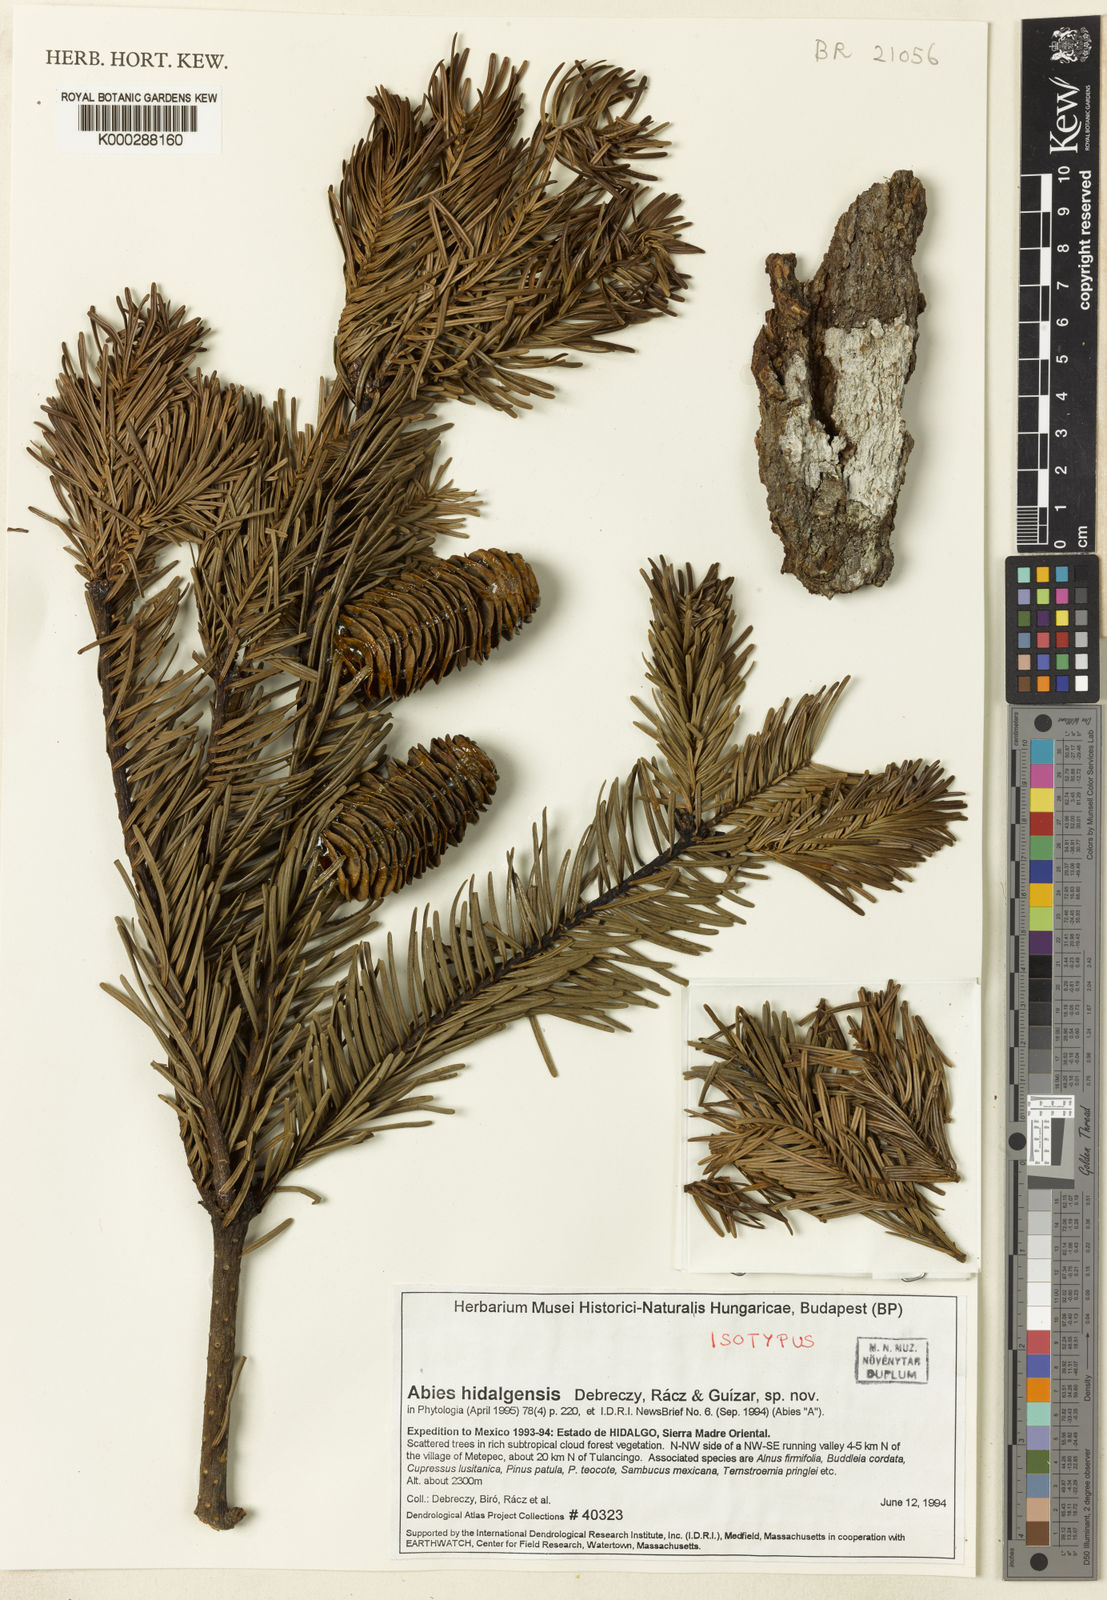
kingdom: Plantae
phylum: Tracheophyta
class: Pinopsida
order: Pinales
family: Pinaceae
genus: Abies
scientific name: Abies
